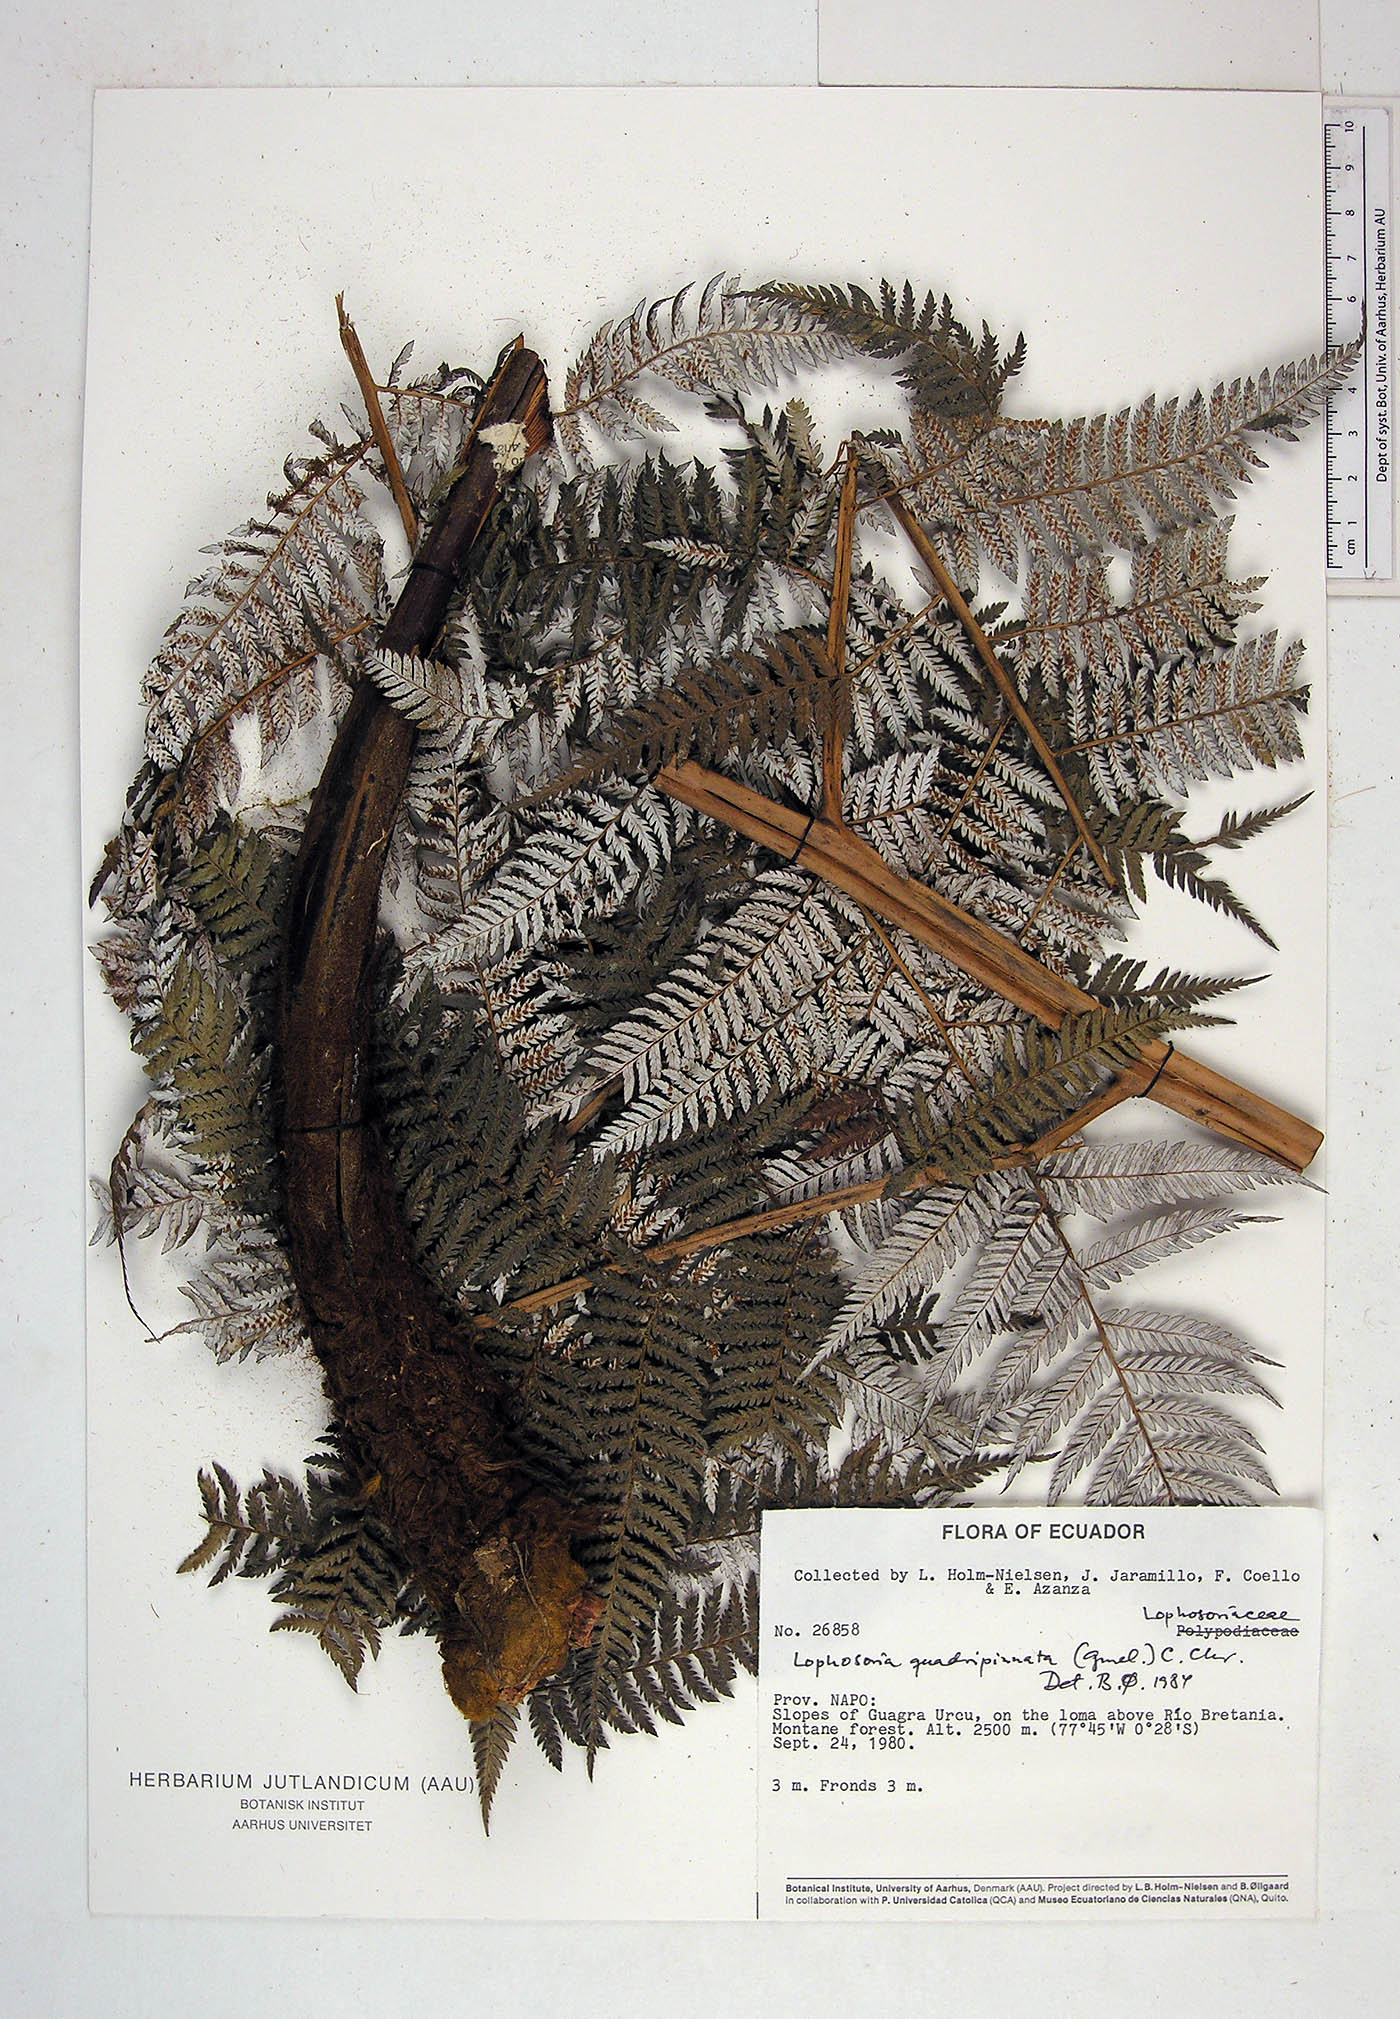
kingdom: Plantae
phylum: Tracheophyta
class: Polypodiopsida
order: Cyatheales
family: Dicksoniaceae
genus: Lophosoria
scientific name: Lophosoria quadripinnata
